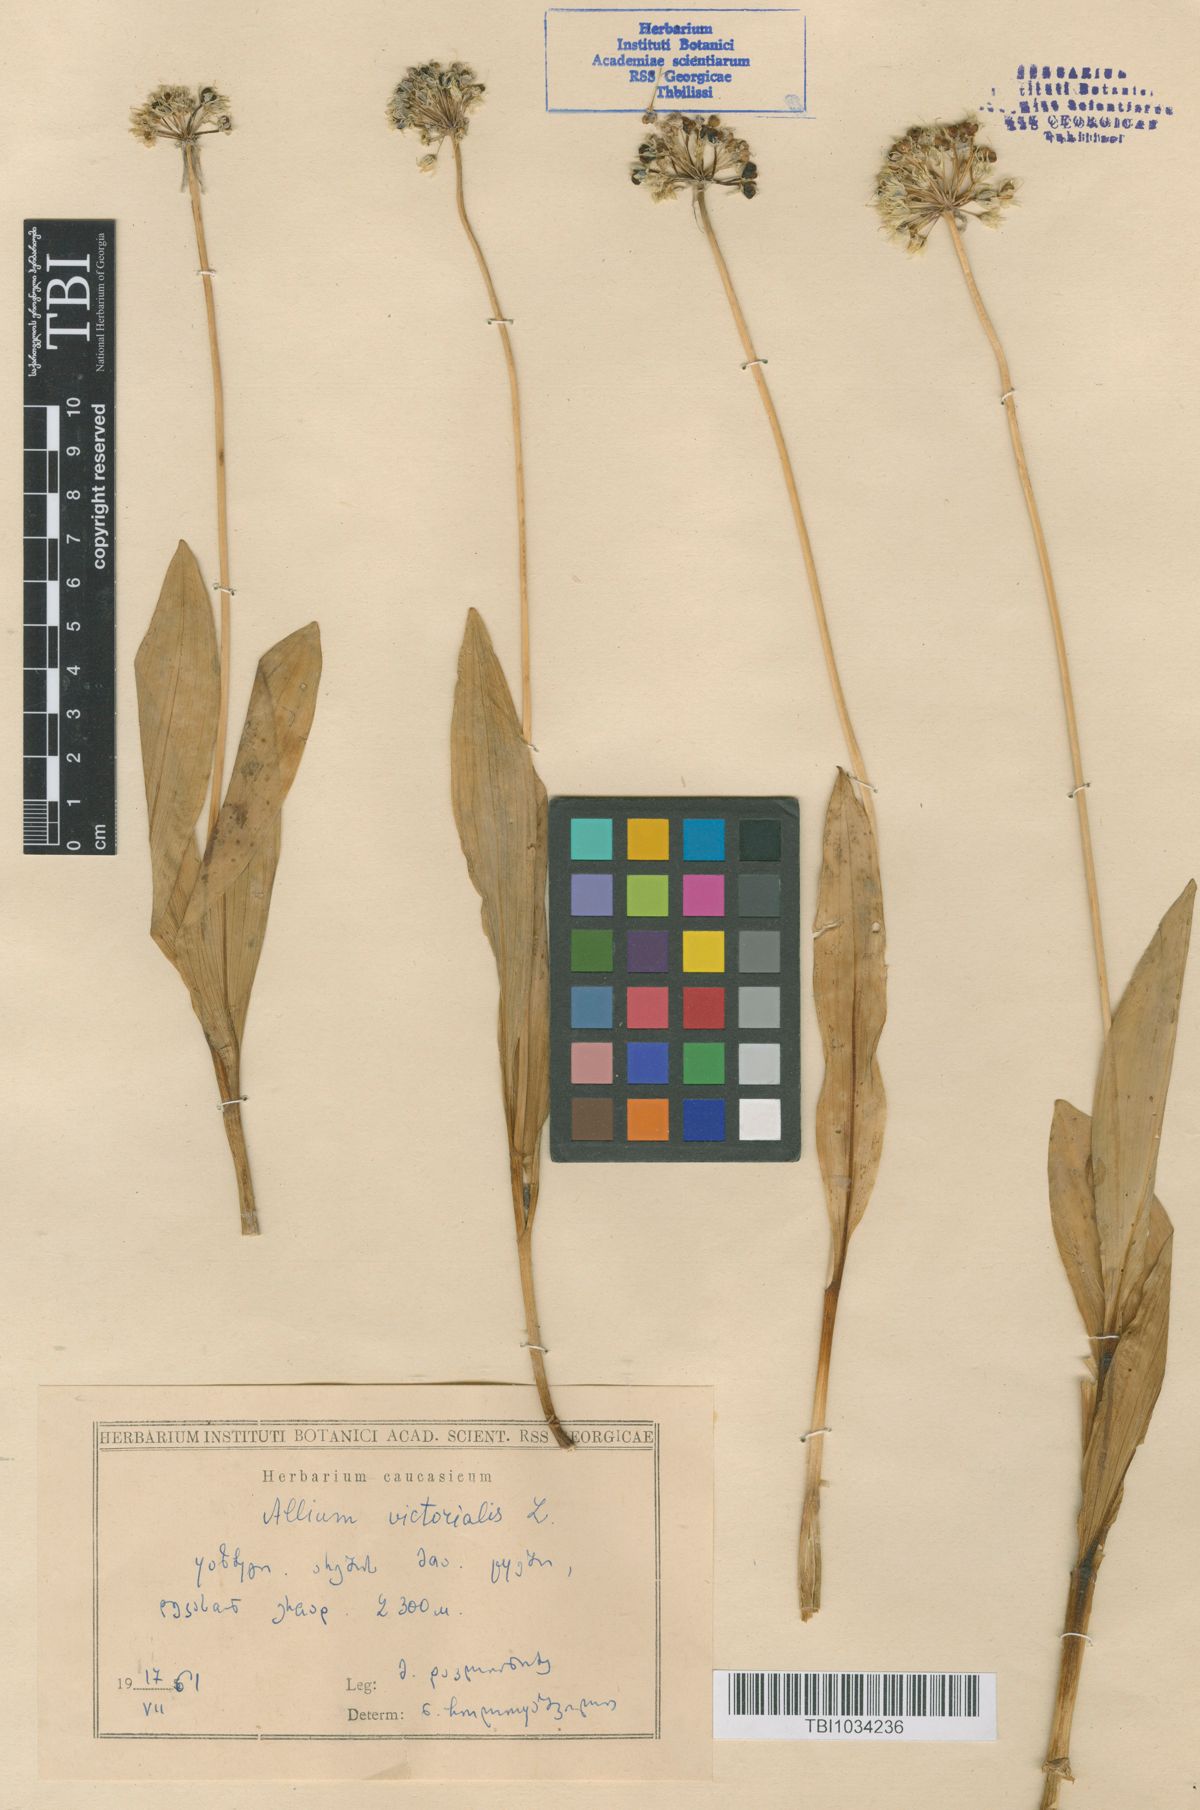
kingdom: Plantae
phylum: Tracheophyta
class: Liliopsida
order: Asparagales
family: Amaryllidaceae
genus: Allium
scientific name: Allium victorialis
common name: Alpine leek
